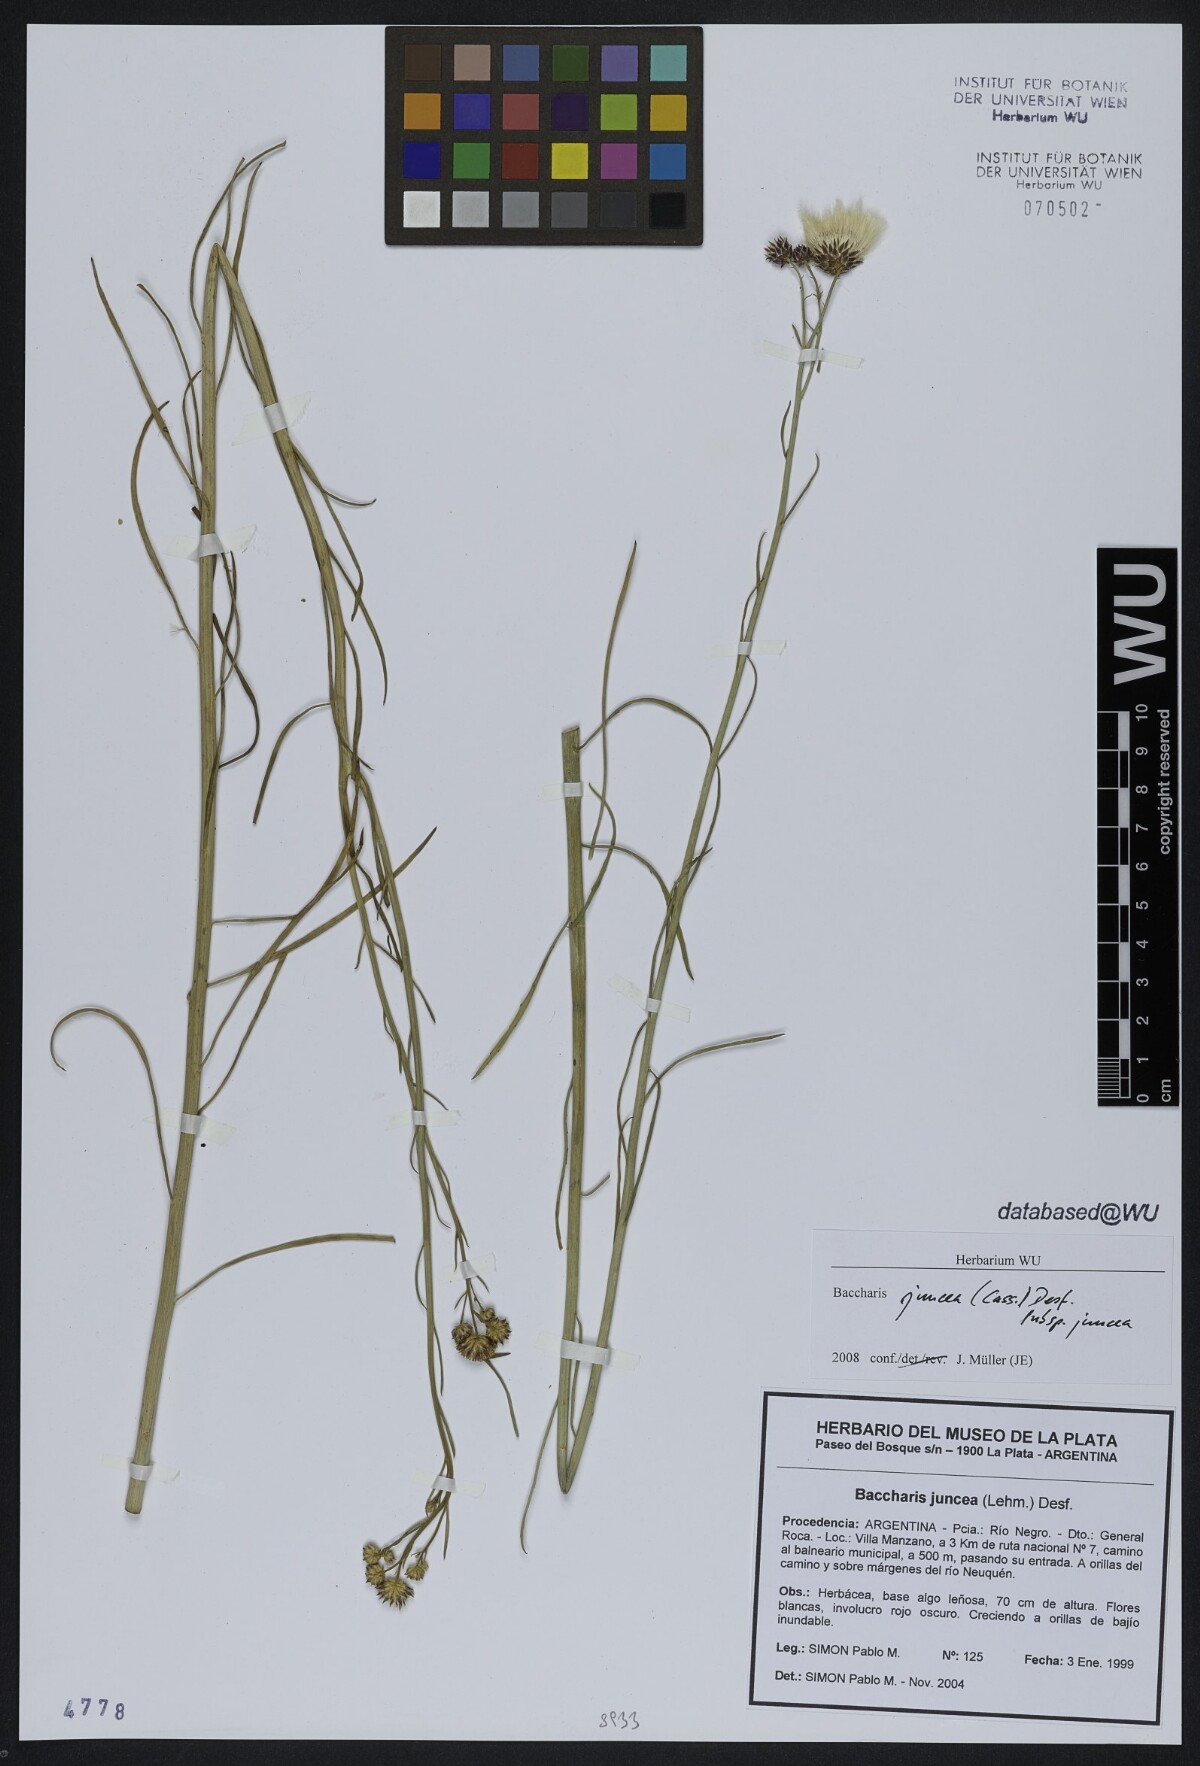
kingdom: Plantae
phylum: Tracheophyta
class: Magnoliopsida
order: Asterales
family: Asteraceae
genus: Baccharis
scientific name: Baccharis juncea
